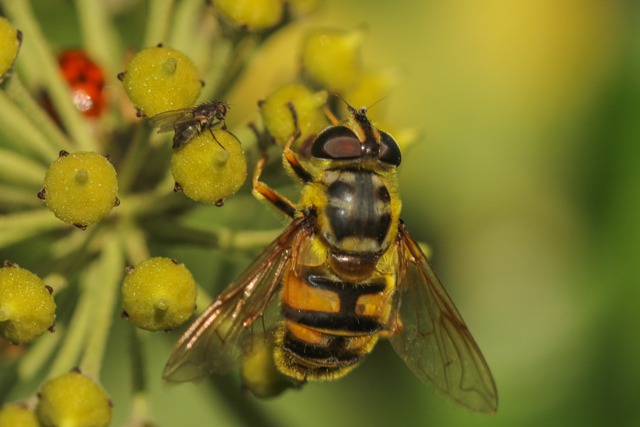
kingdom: Animalia
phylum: Arthropoda
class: Insecta
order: Diptera
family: Syrphidae
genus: Myathropa
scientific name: Myathropa florea
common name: Dødningehoved-svirreflue
